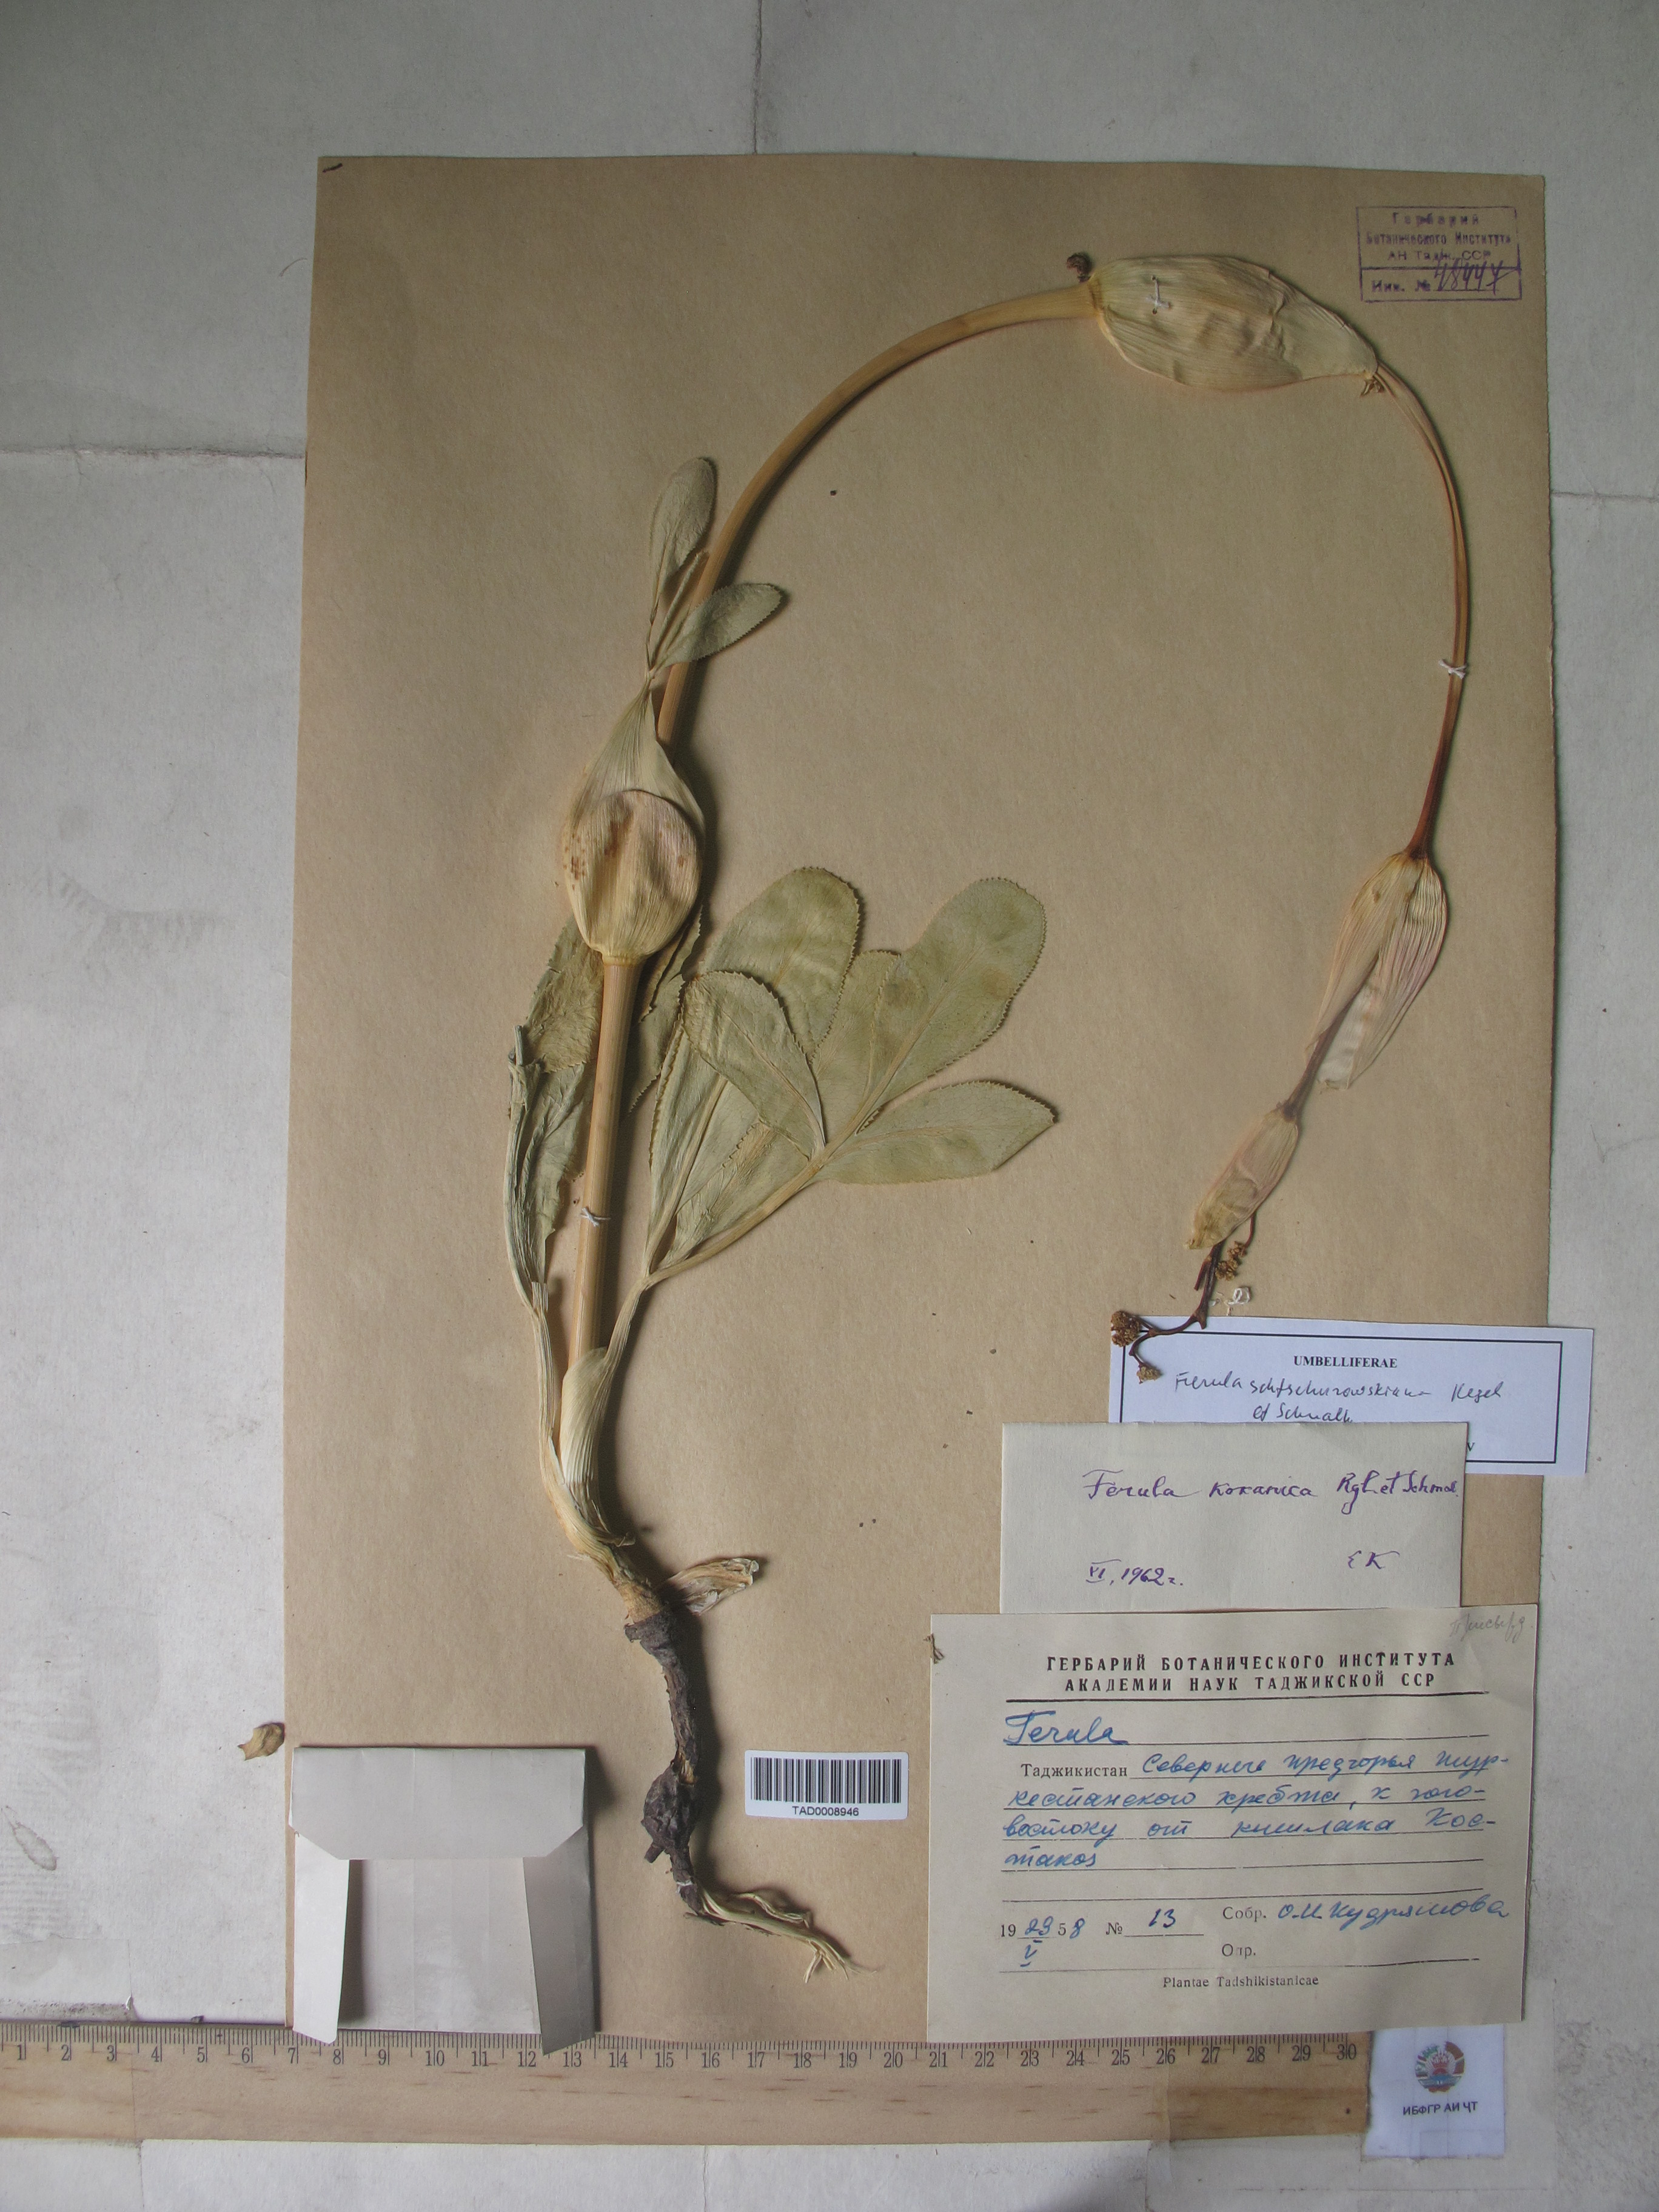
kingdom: Plantae
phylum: Tracheophyta
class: Magnoliopsida
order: Apiales
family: Apiaceae
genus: Ferula
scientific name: Ferula kokanica
